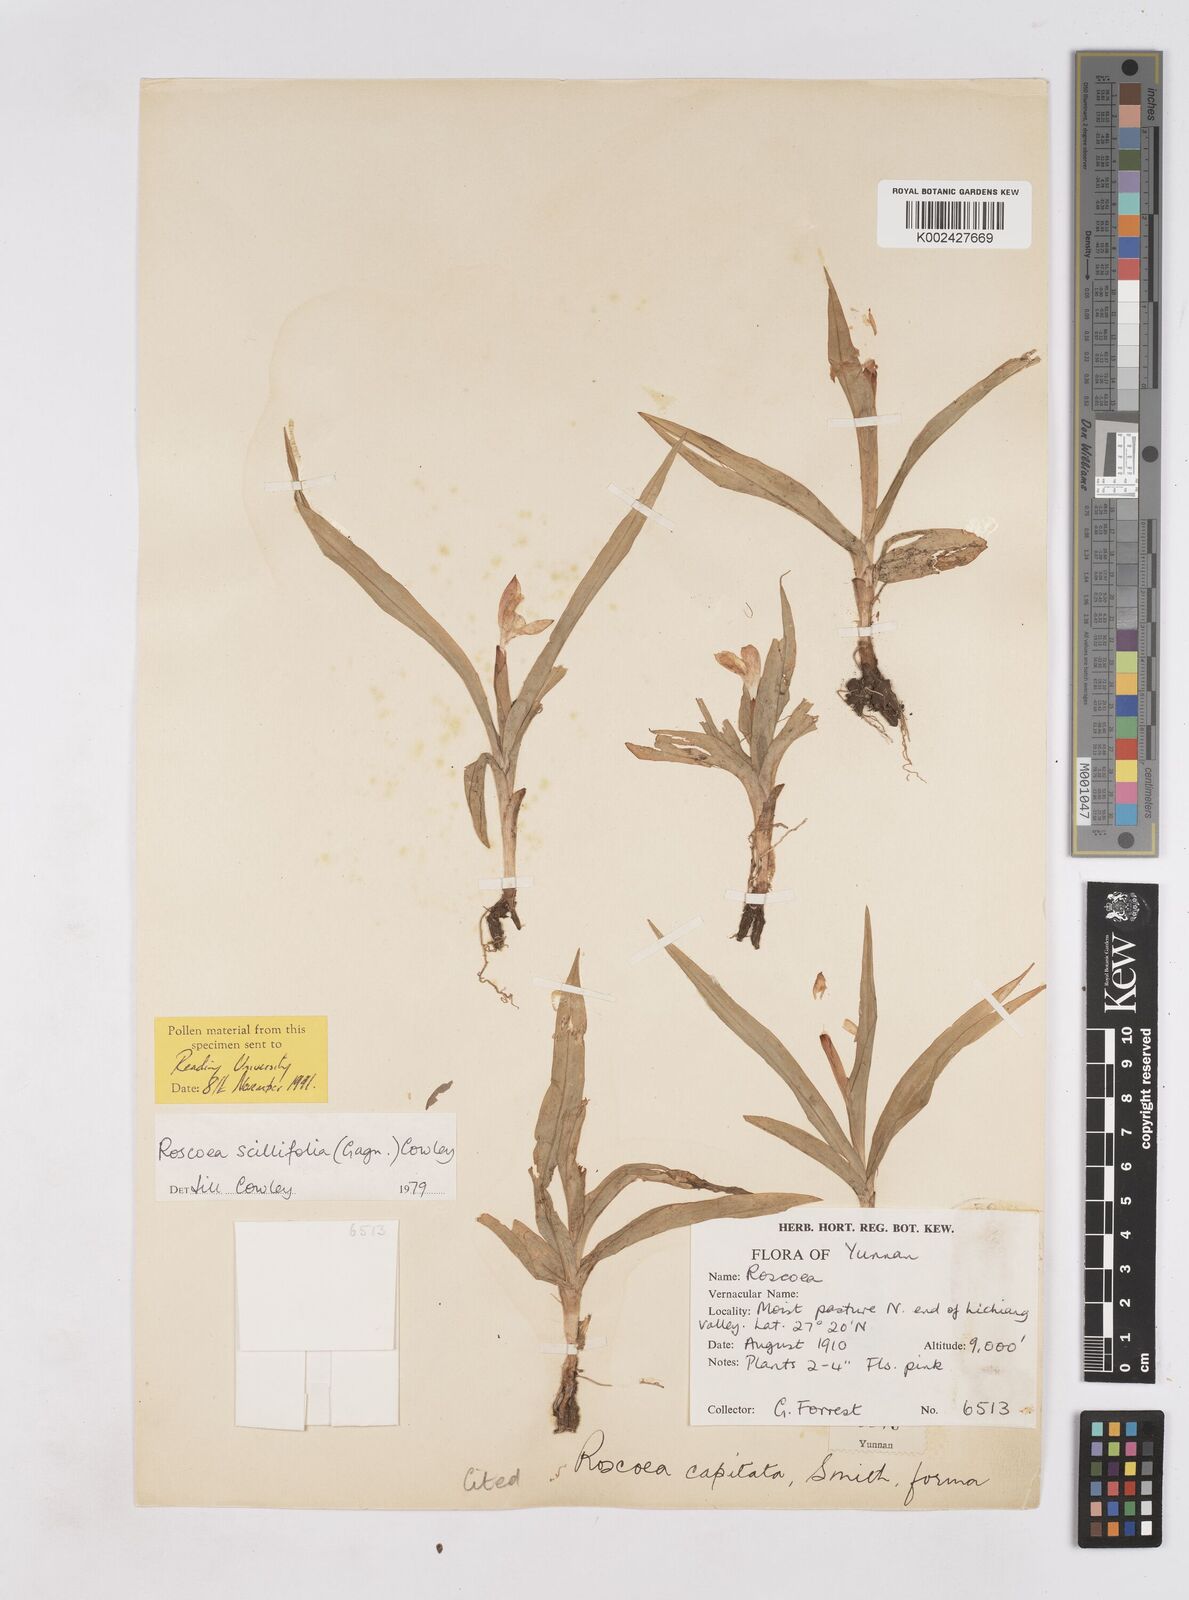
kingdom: Plantae
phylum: Tracheophyta
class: Liliopsida
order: Zingiberales
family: Zingiberaceae
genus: Roscoea
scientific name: Roscoea scillifolia
